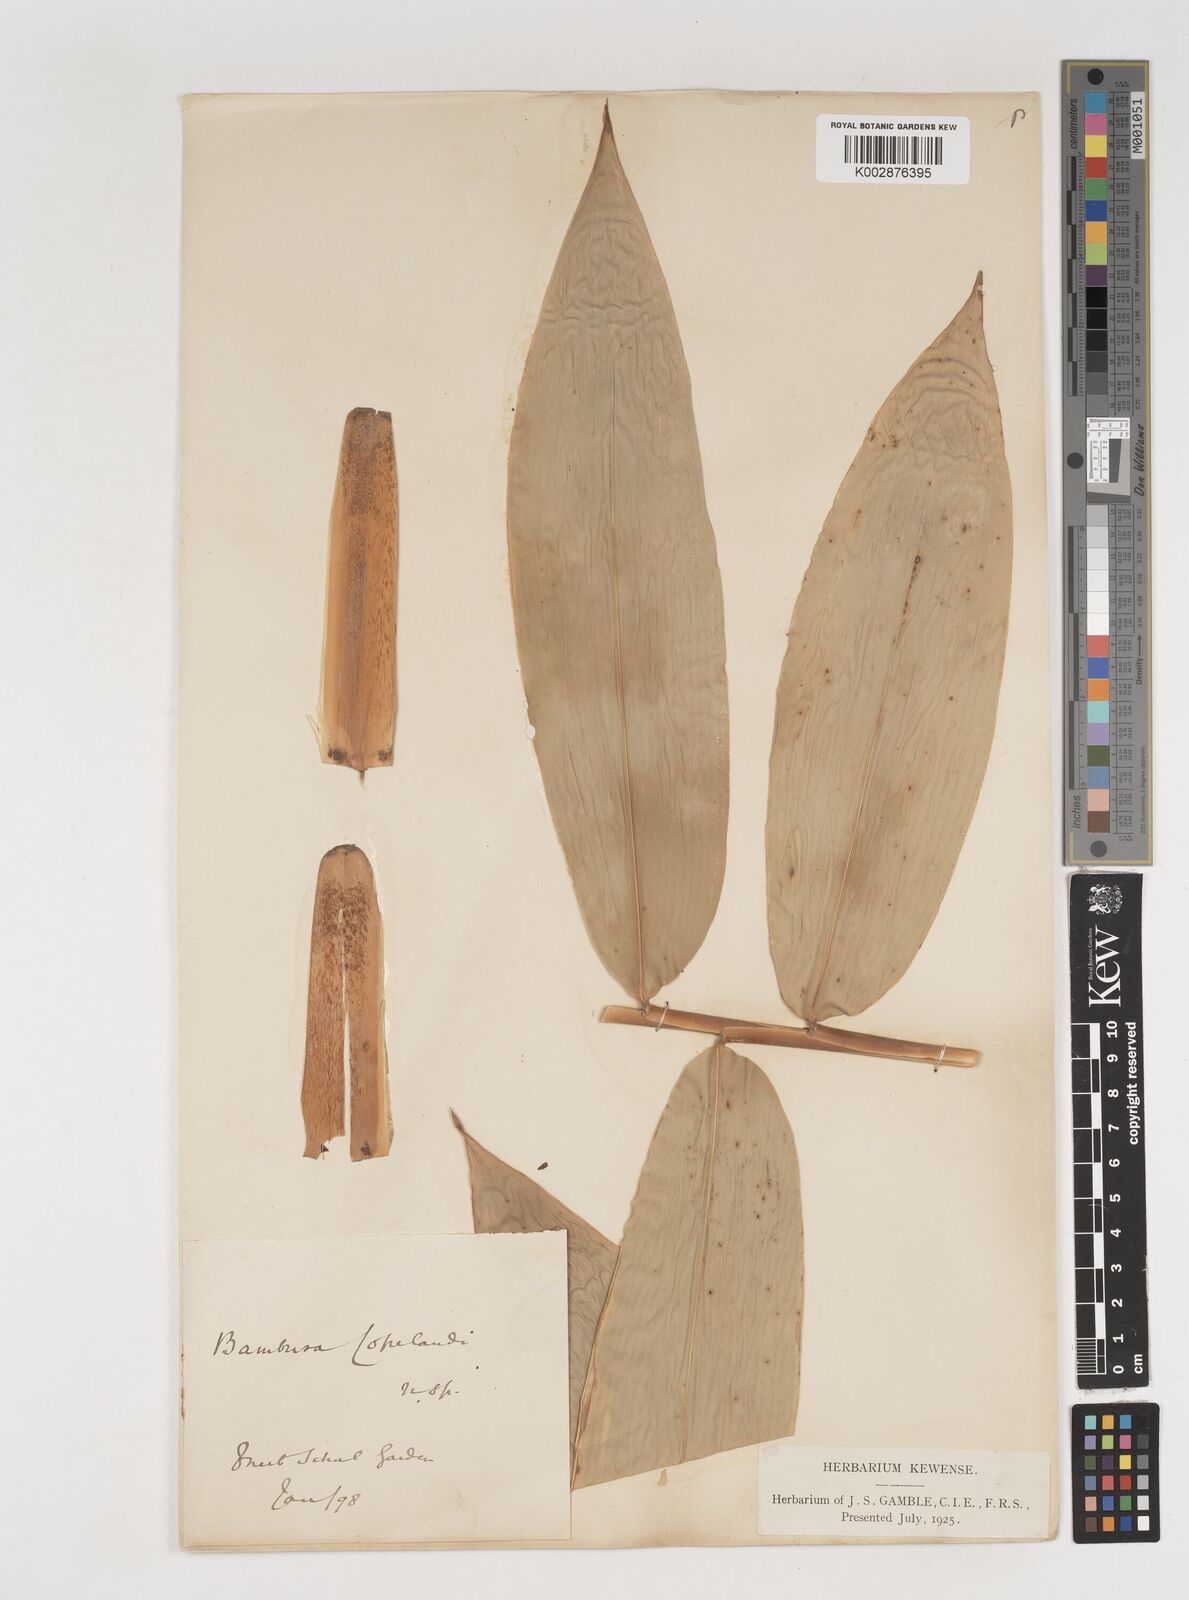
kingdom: Plantae
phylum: Tracheophyta
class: Liliopsida
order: Poales
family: Poaceae
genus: Bambusa
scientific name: Bambusa copelandii
